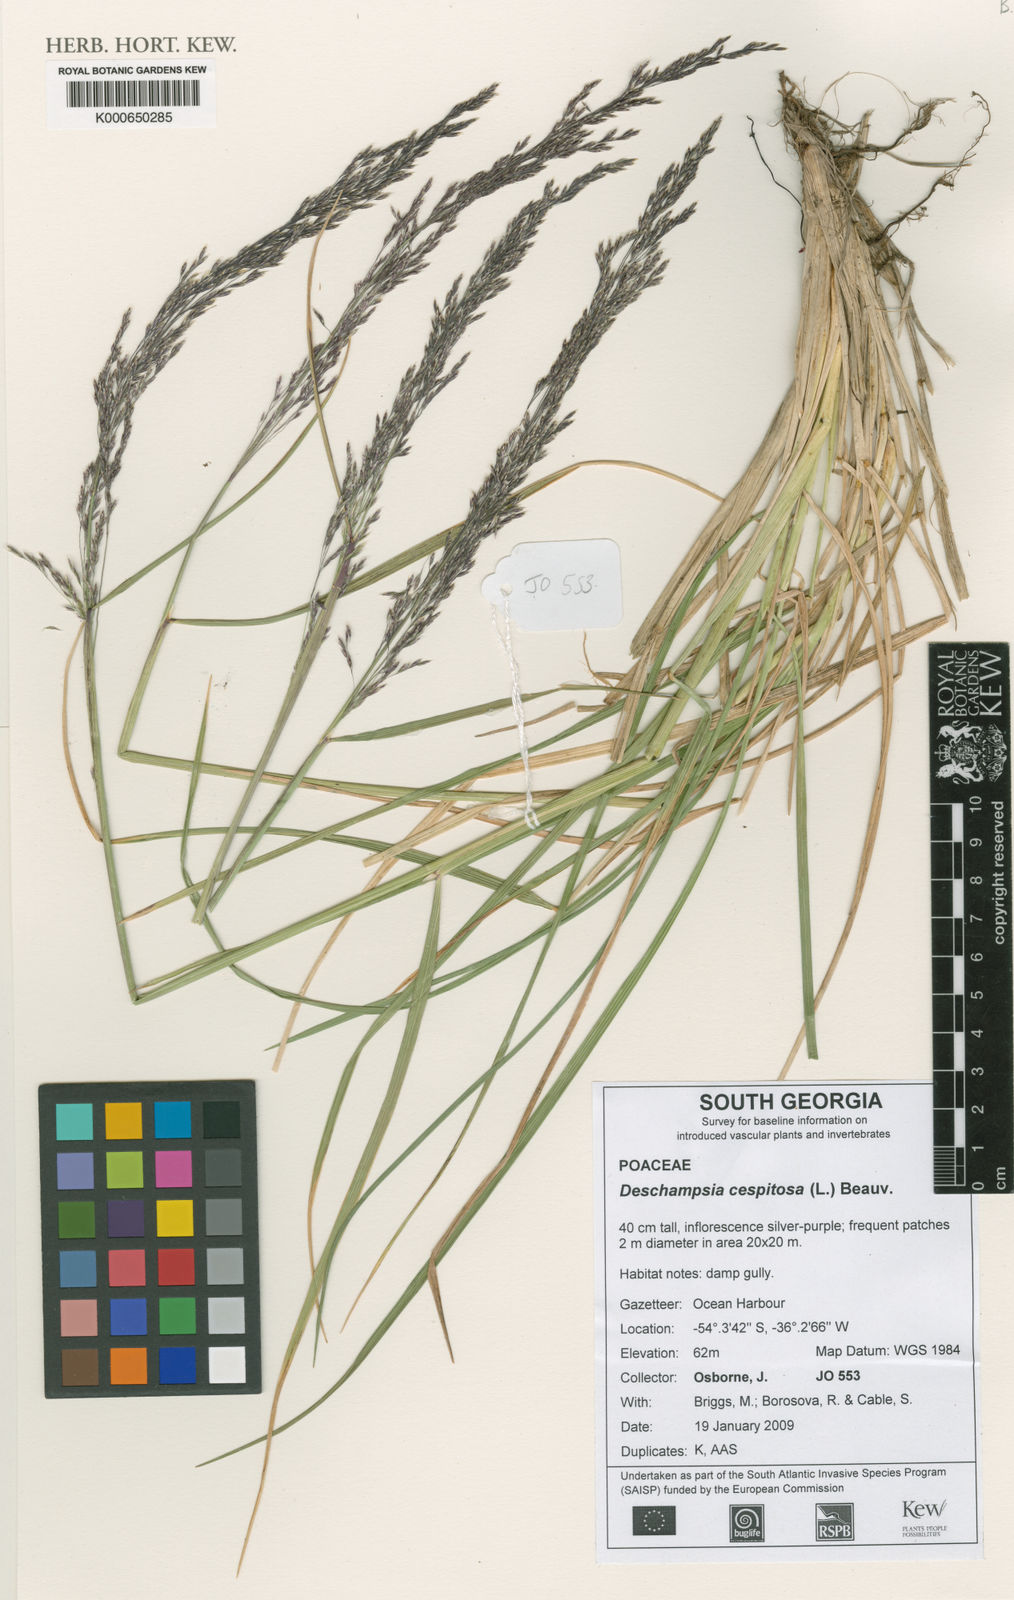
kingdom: Plantae
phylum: Tracheophyta
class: Liliopsida
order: Poales
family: Poaceae
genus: Deschampsia
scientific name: Deschampsia cespitosa
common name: Tufted hair-grass
